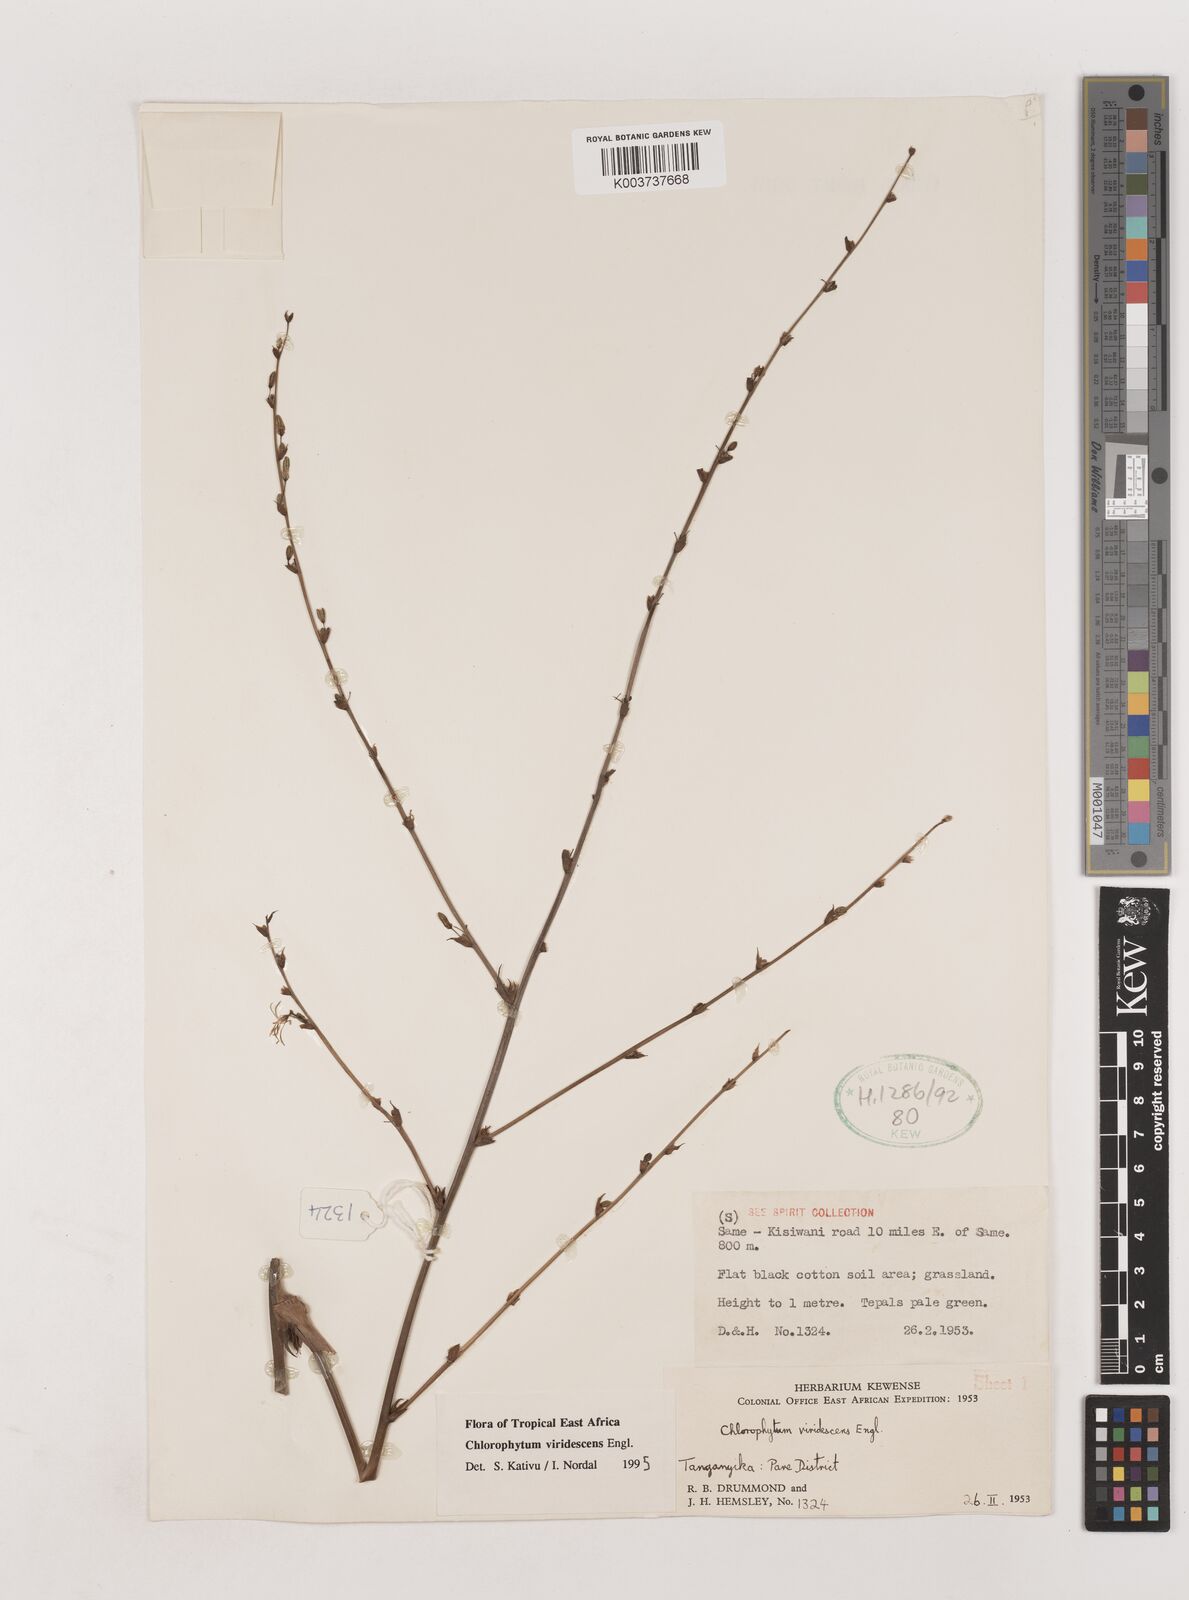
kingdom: Plantae
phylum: Tracheophyta
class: Liliopsida
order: Asparagales
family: Asparagaceae
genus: Chlorophytum
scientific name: Chlorophytum viridescens
